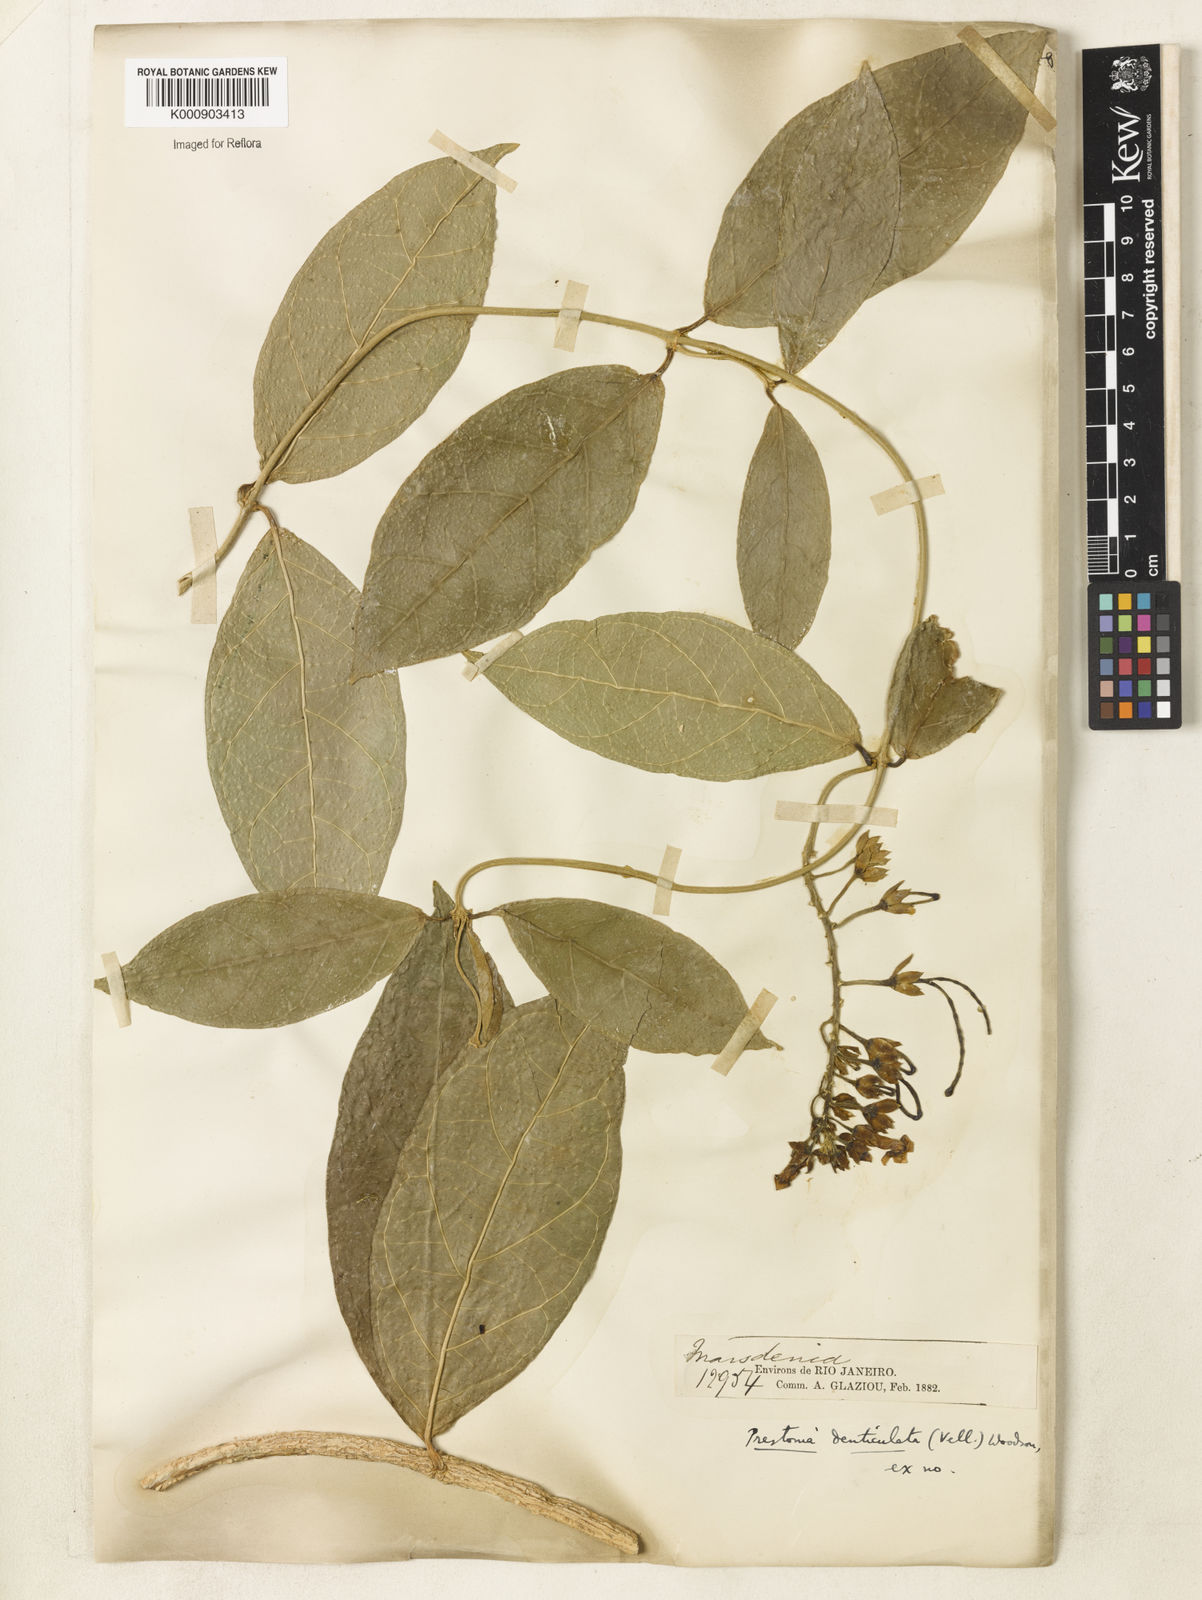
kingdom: Plantae
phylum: Tracheophyta
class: Magnoliopsida
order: Gentianales
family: Apocynaceae
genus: Prestonia
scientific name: Prestonia denticulata
